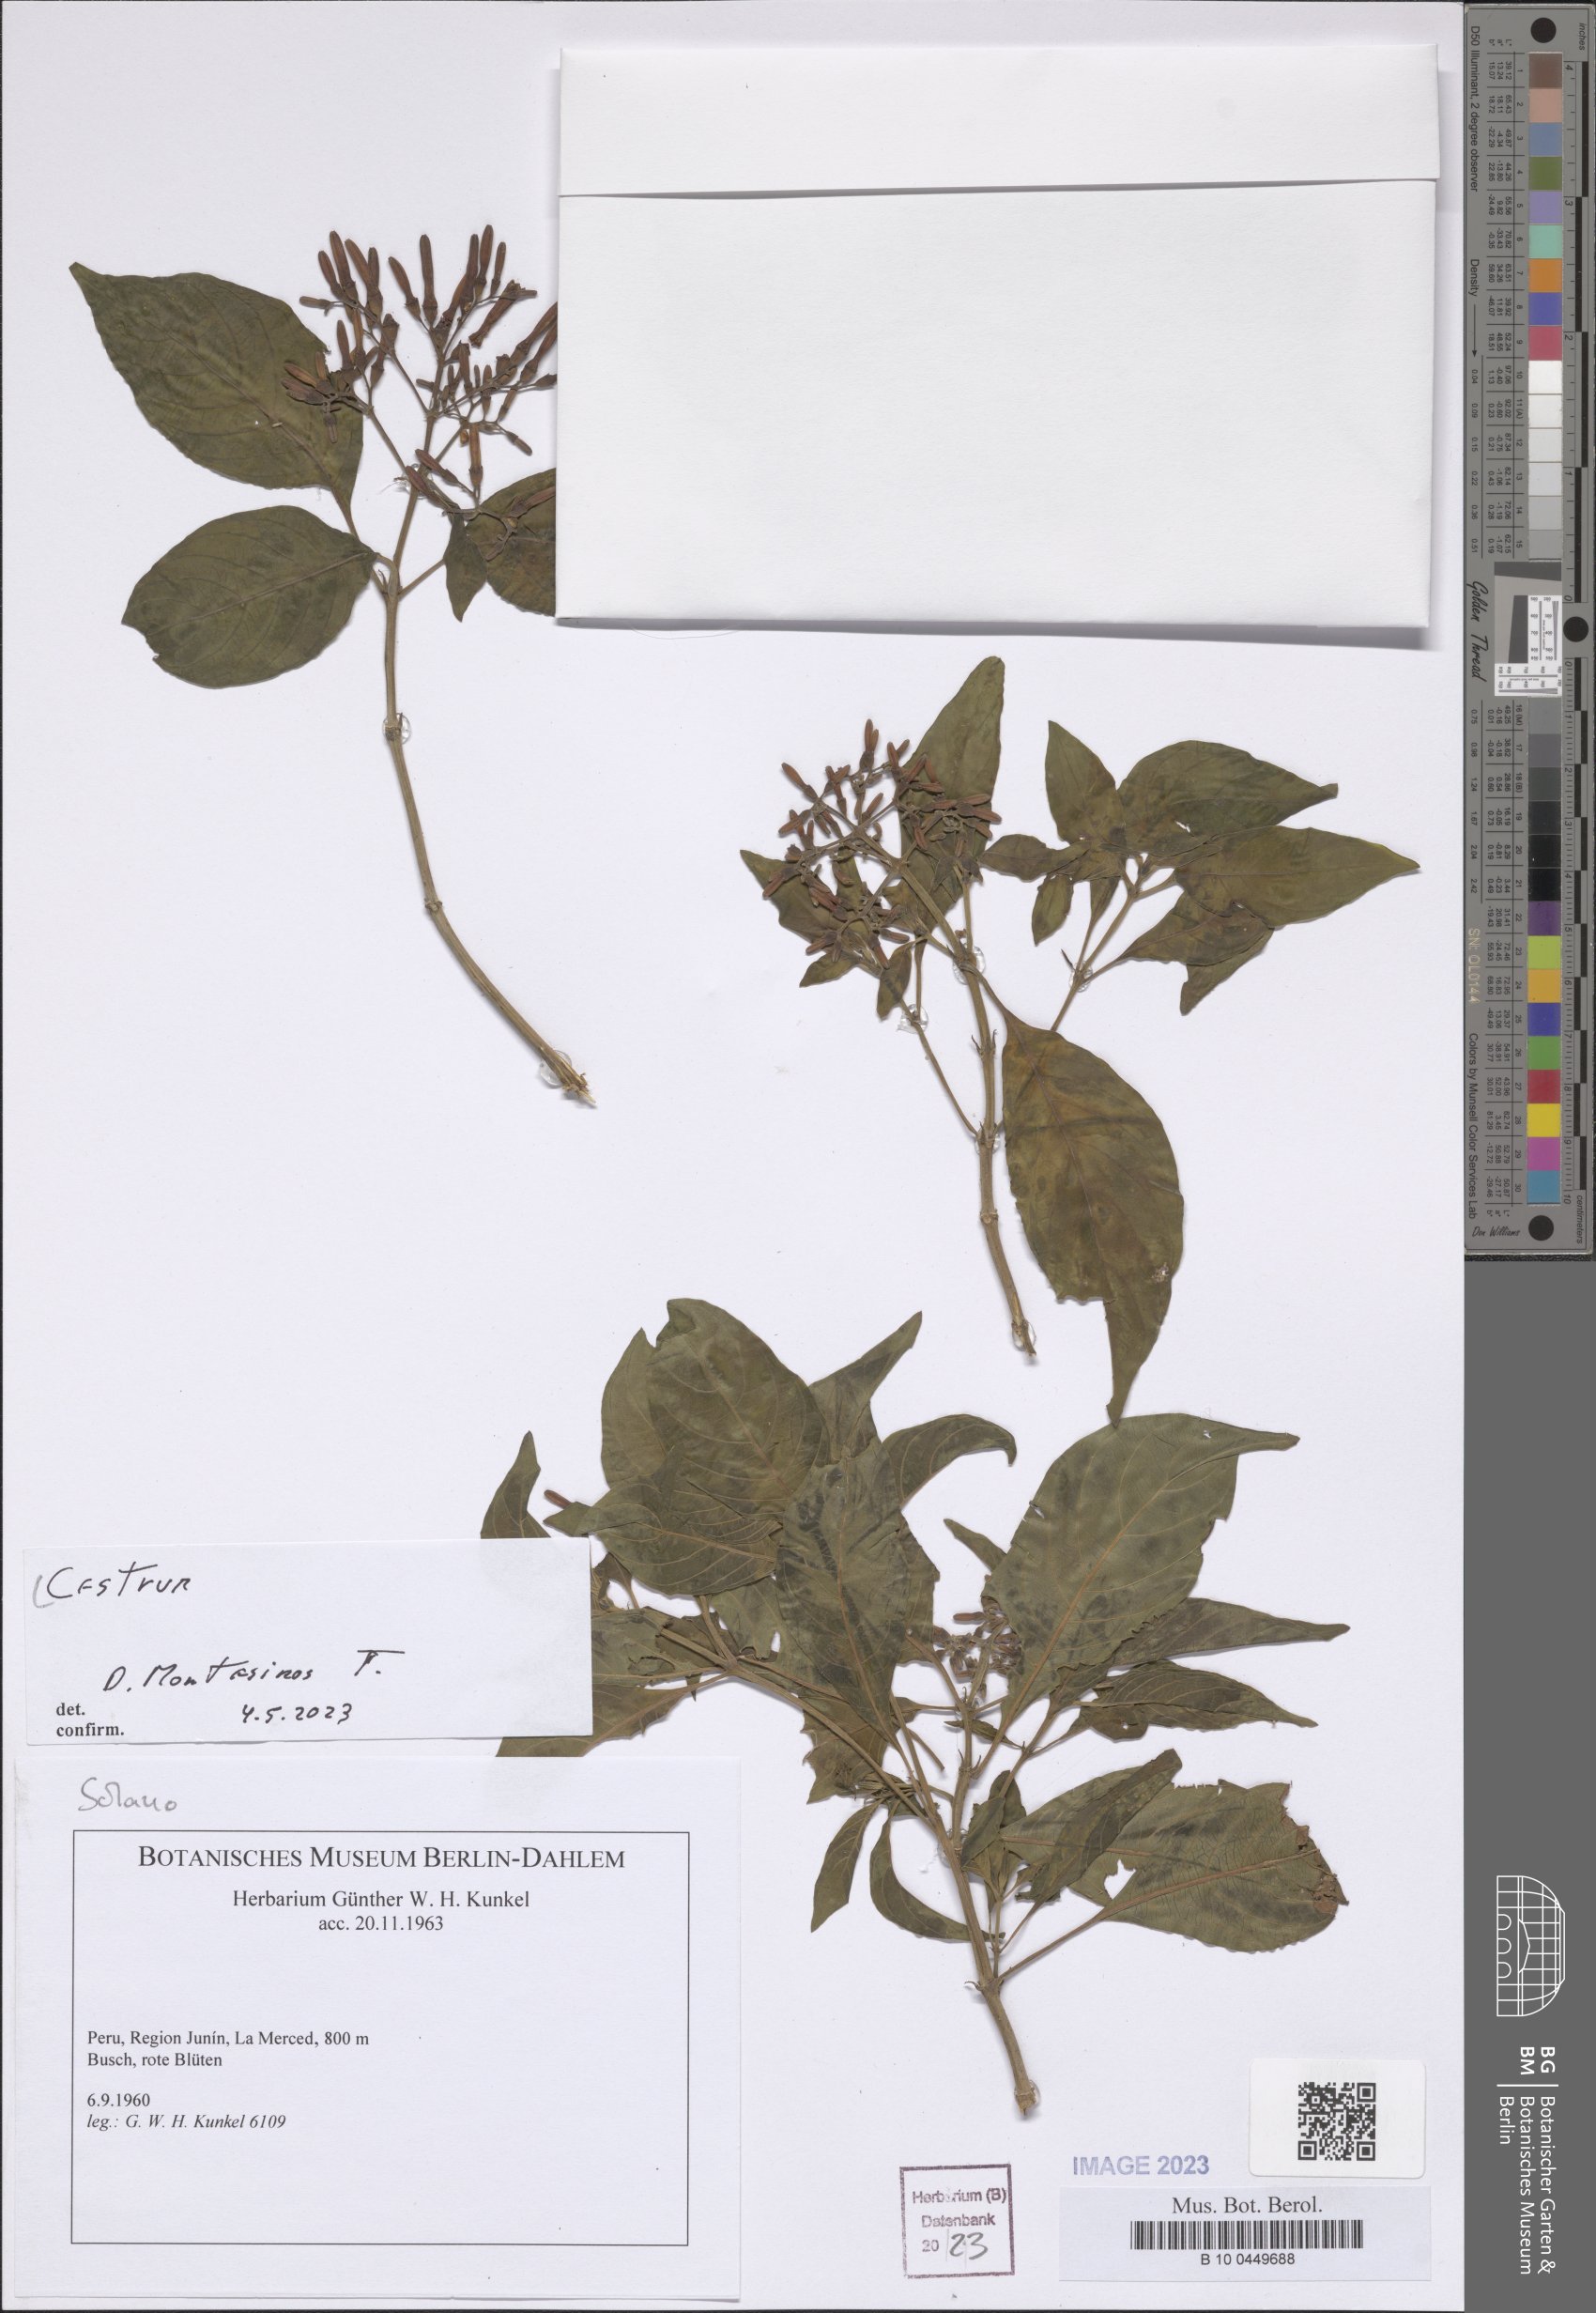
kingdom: Plantae
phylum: Tracheophyta
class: Magnoliopsida
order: Solanales
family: Solanaceae
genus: Cestrum
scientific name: Cestrum
